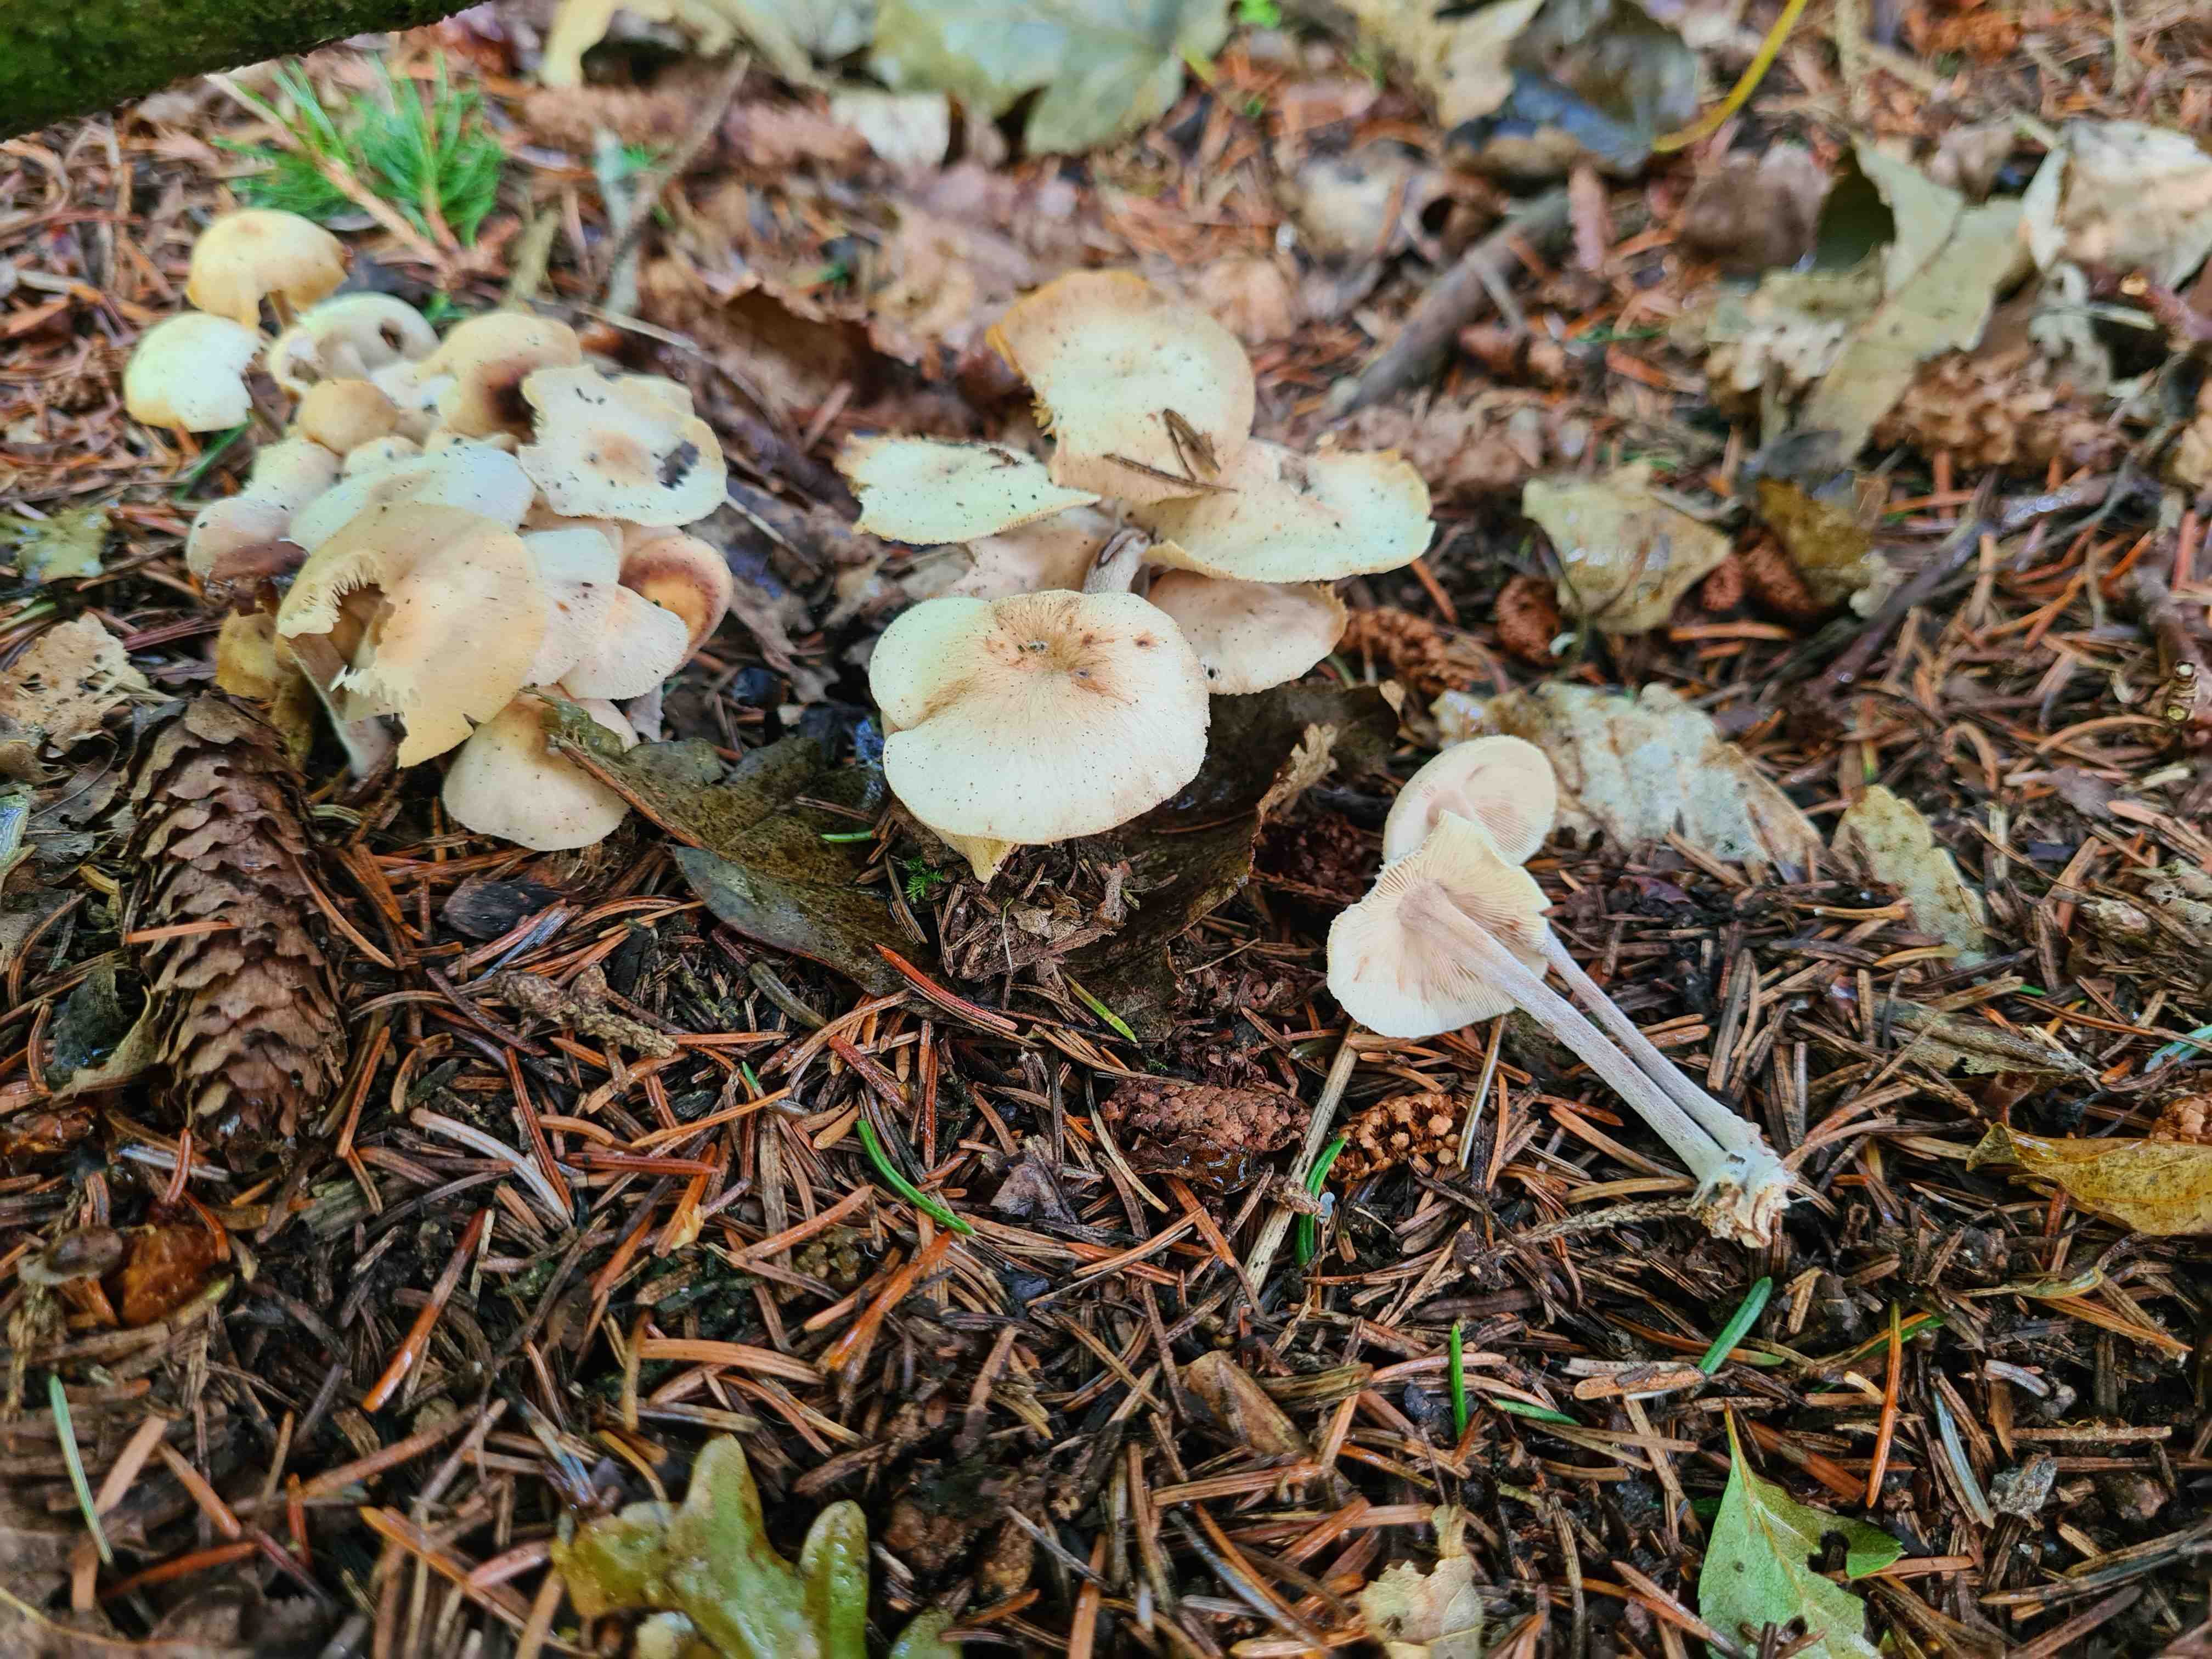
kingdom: Fungi
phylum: Basidiomycota
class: Agaricomycetes
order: Agaricales
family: Omphalotaceae
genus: Collybiopsis
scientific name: Collybiopsis confluens
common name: knippe-fladhat
